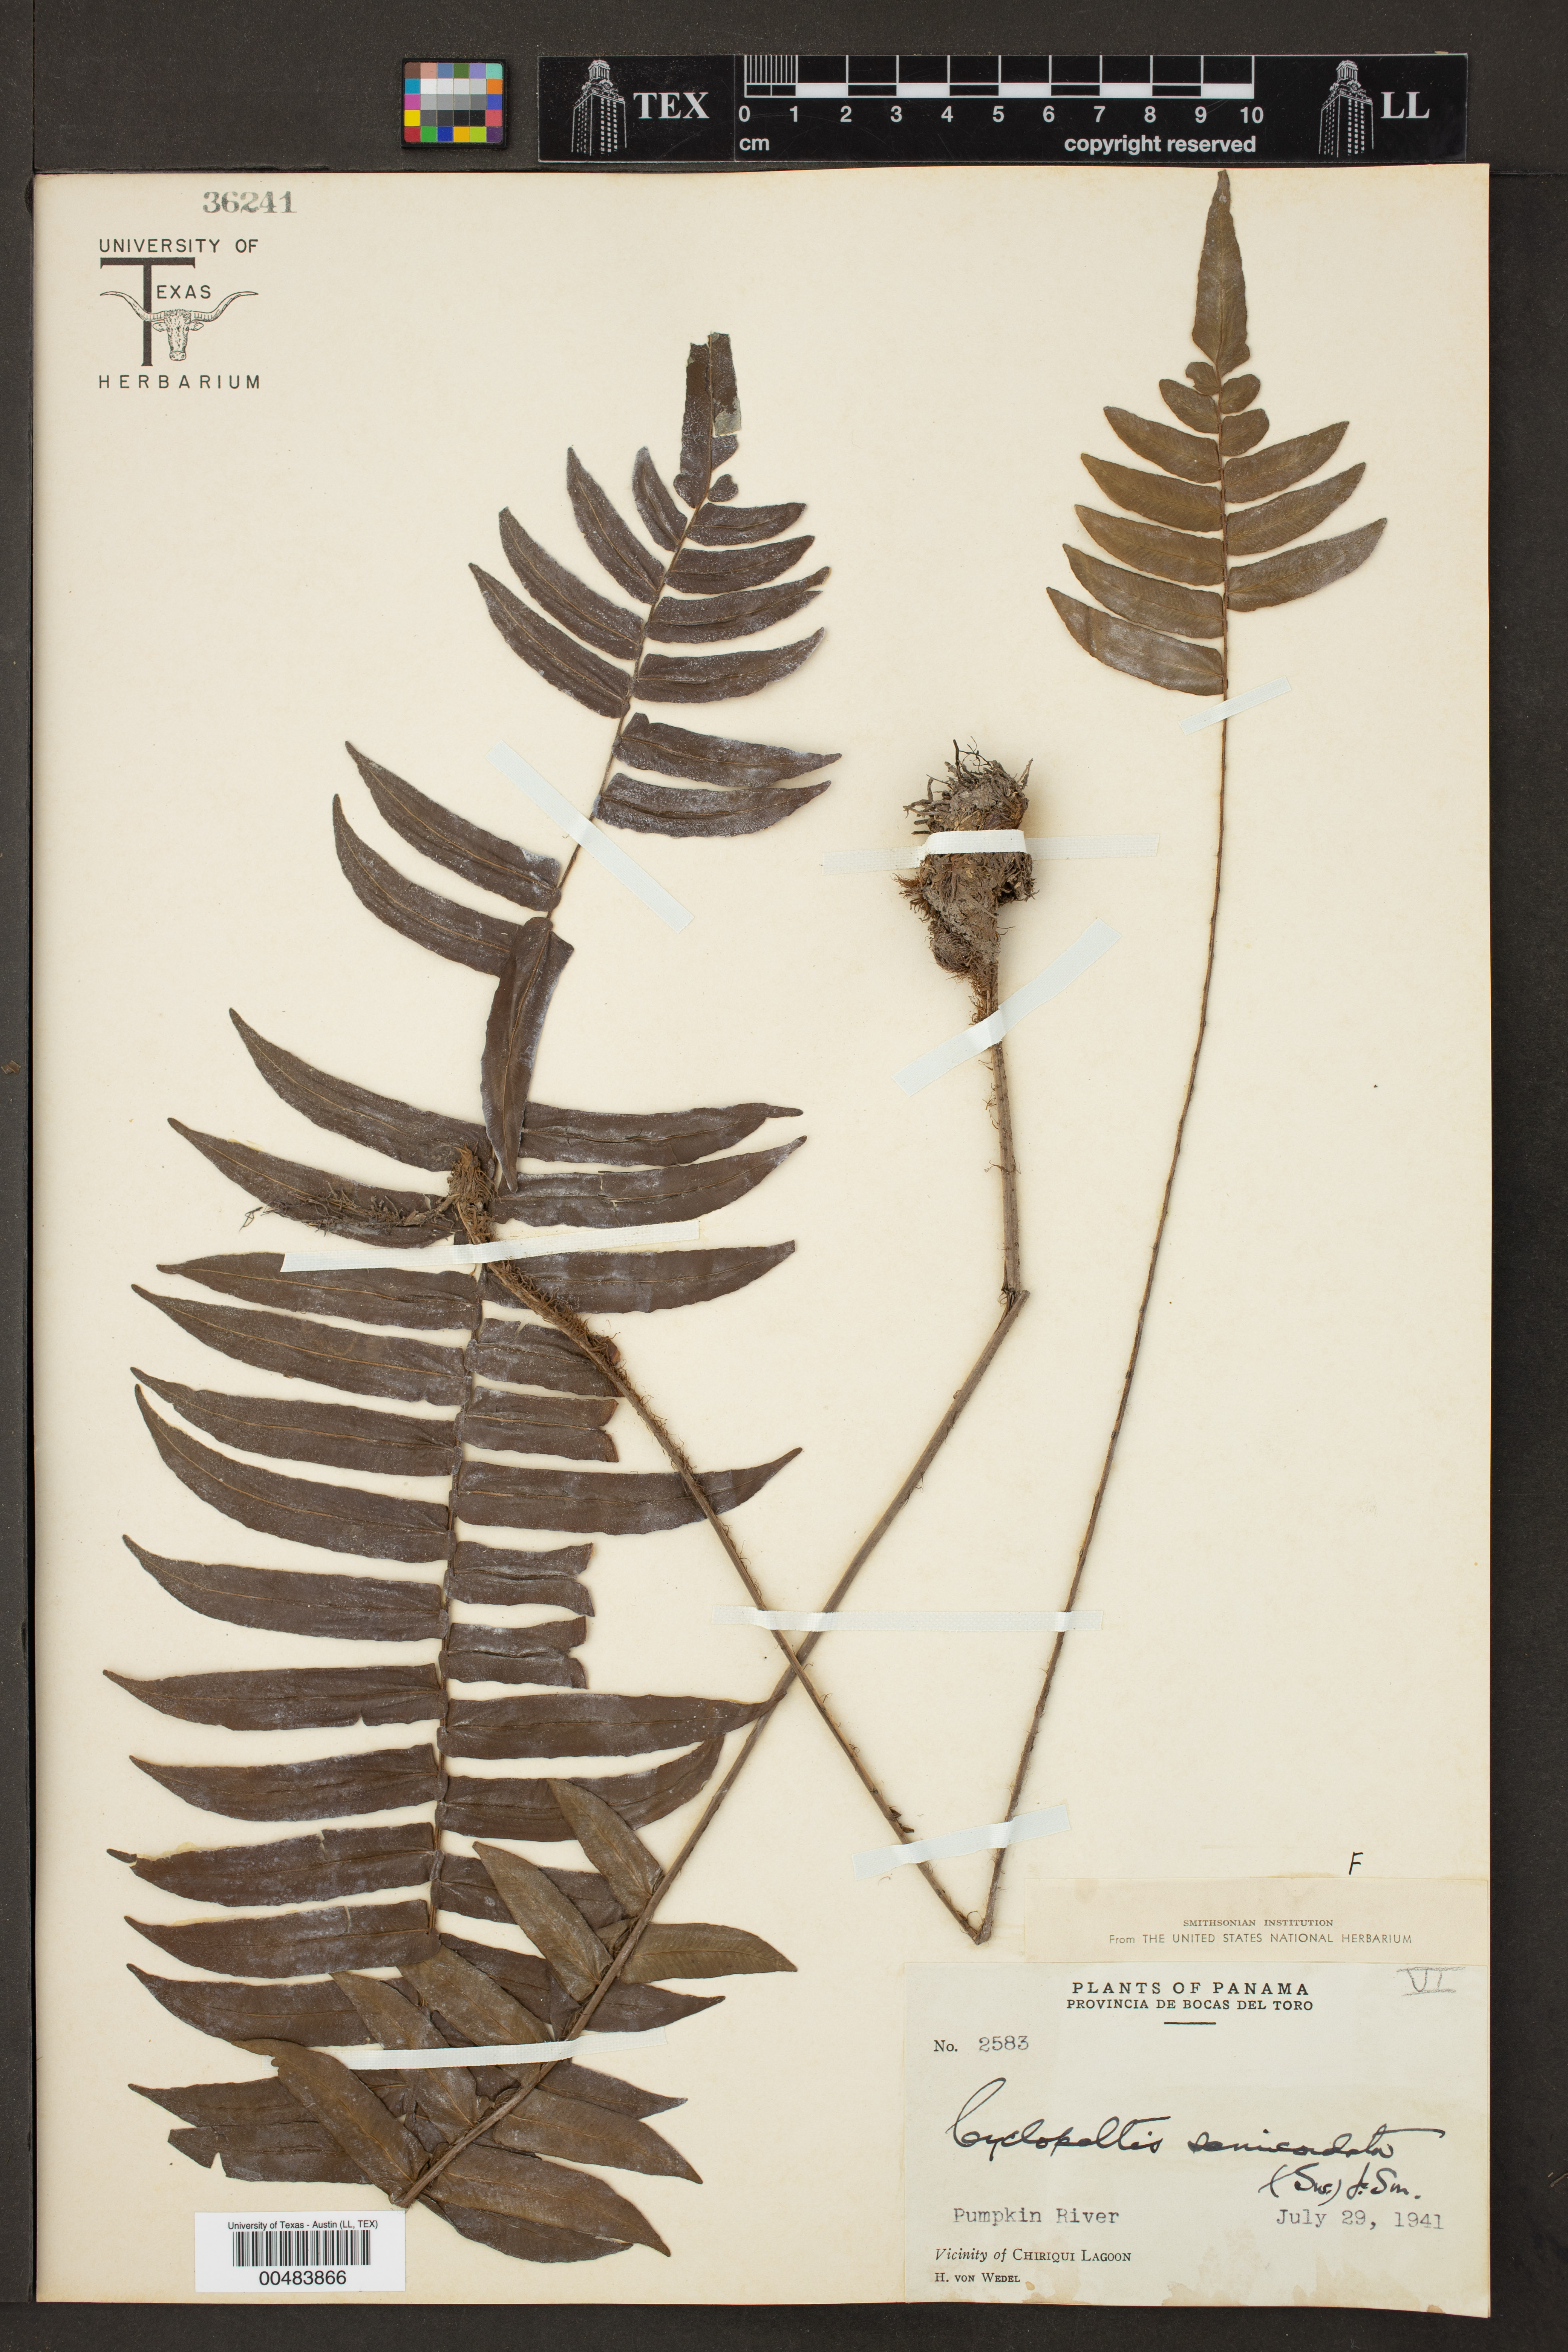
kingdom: Plantae
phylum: Tracheophyta
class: Polypodiopsida
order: Polypodiales
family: Lomariopsidaceae
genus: Cyclopeltis
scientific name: Cyclopeltis semicordata
